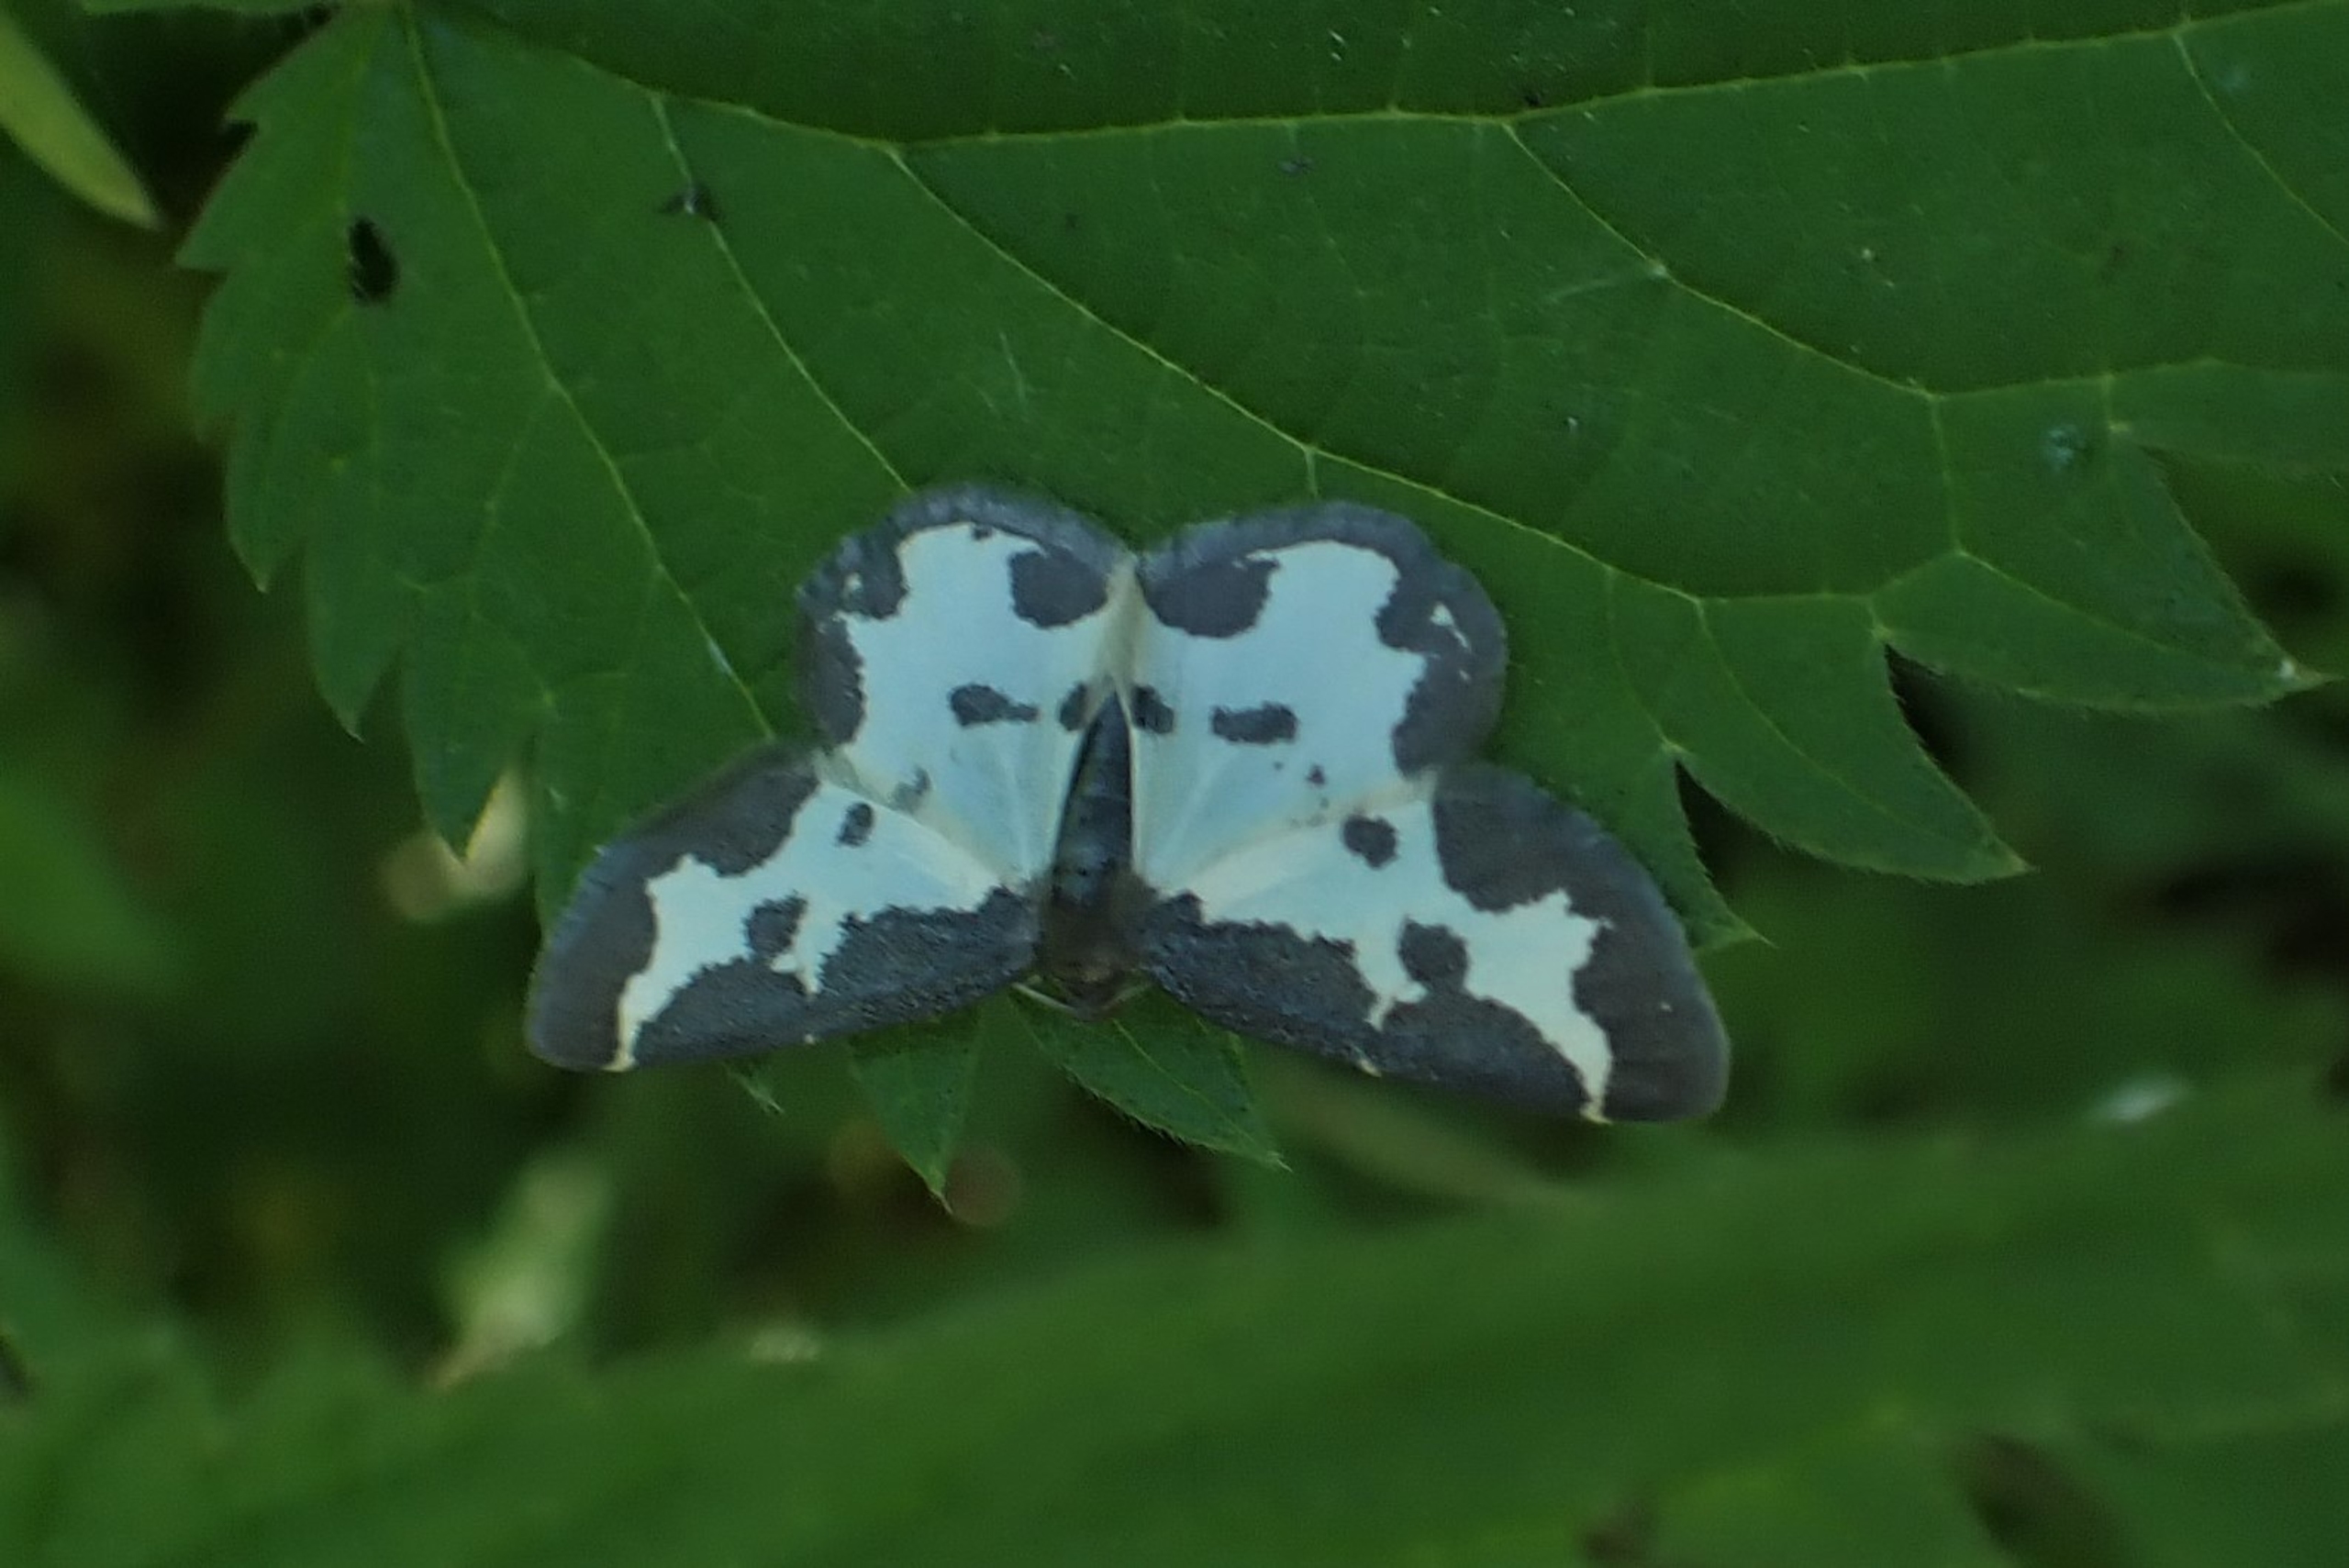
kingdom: Animalia
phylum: Arthropoda
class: Insecta
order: Lepidoptera
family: Geometridae
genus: Lomaspilis
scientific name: Lomaspilis marginata
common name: Sortrandet måler
